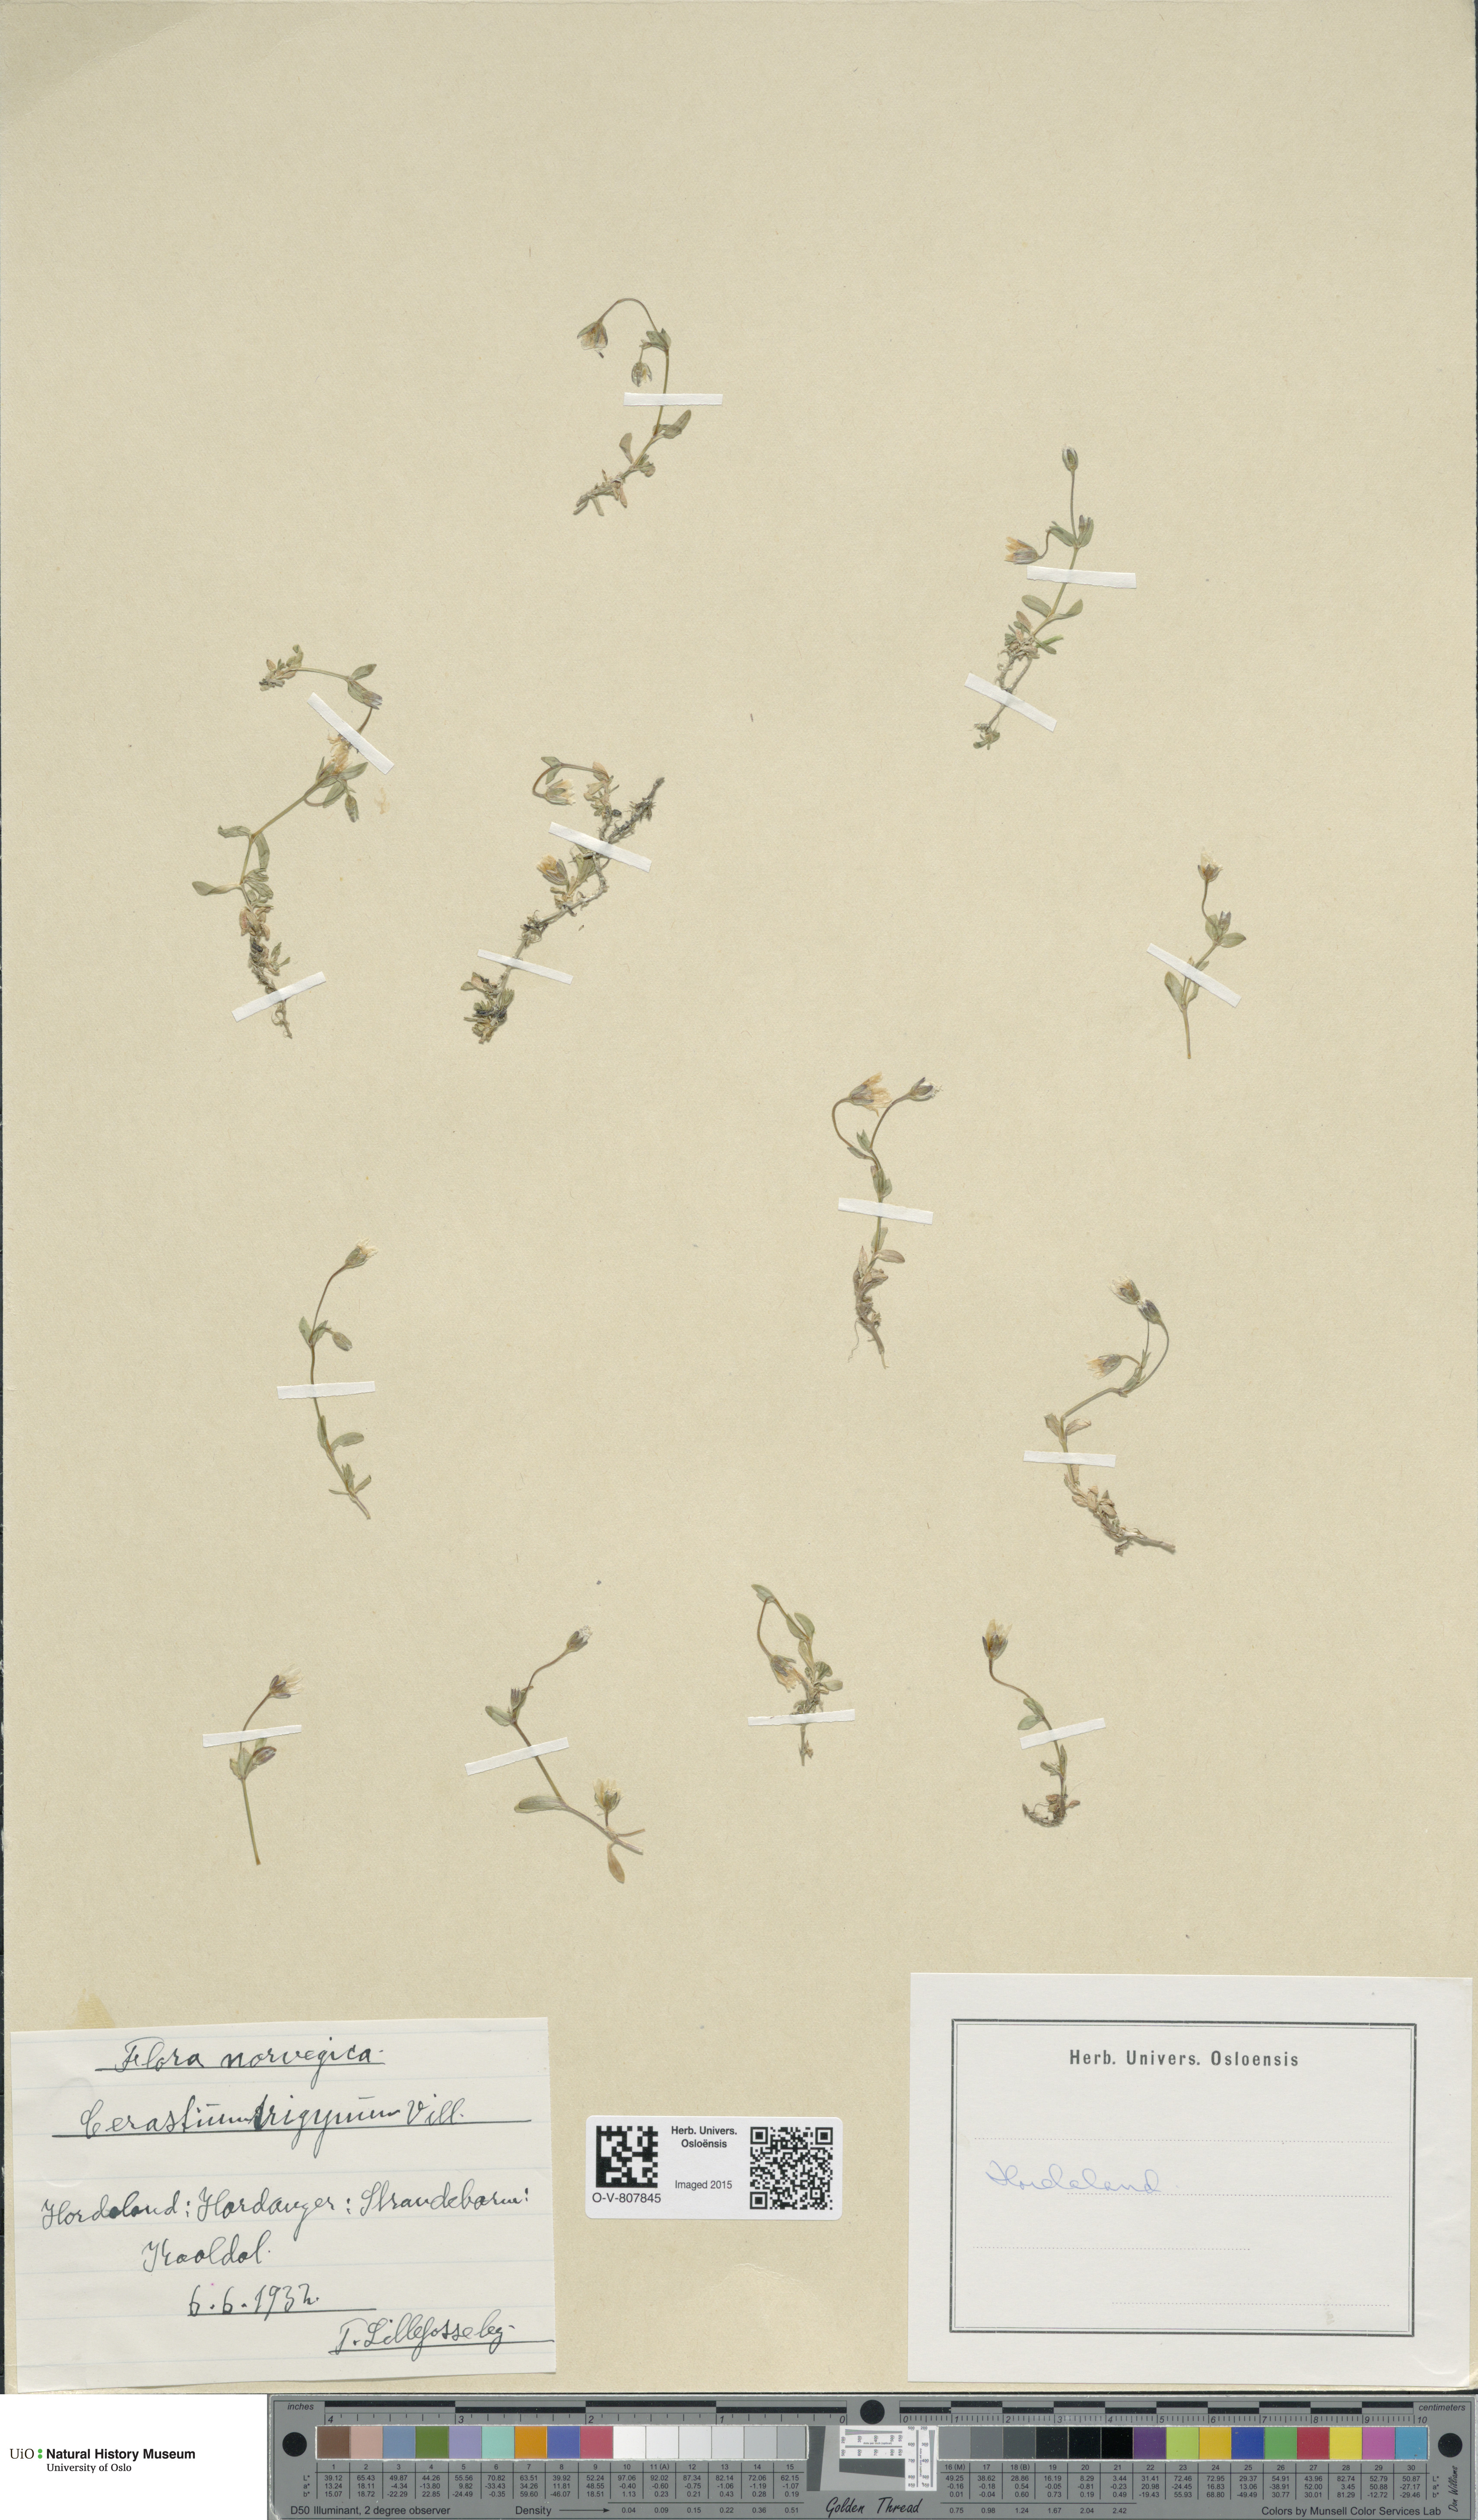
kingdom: Plantae
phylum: Tracheophyta
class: Magnoliopsida
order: Caryophyllales
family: Caryophyllaceae
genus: Dichodon
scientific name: Dichodon cerastoides
